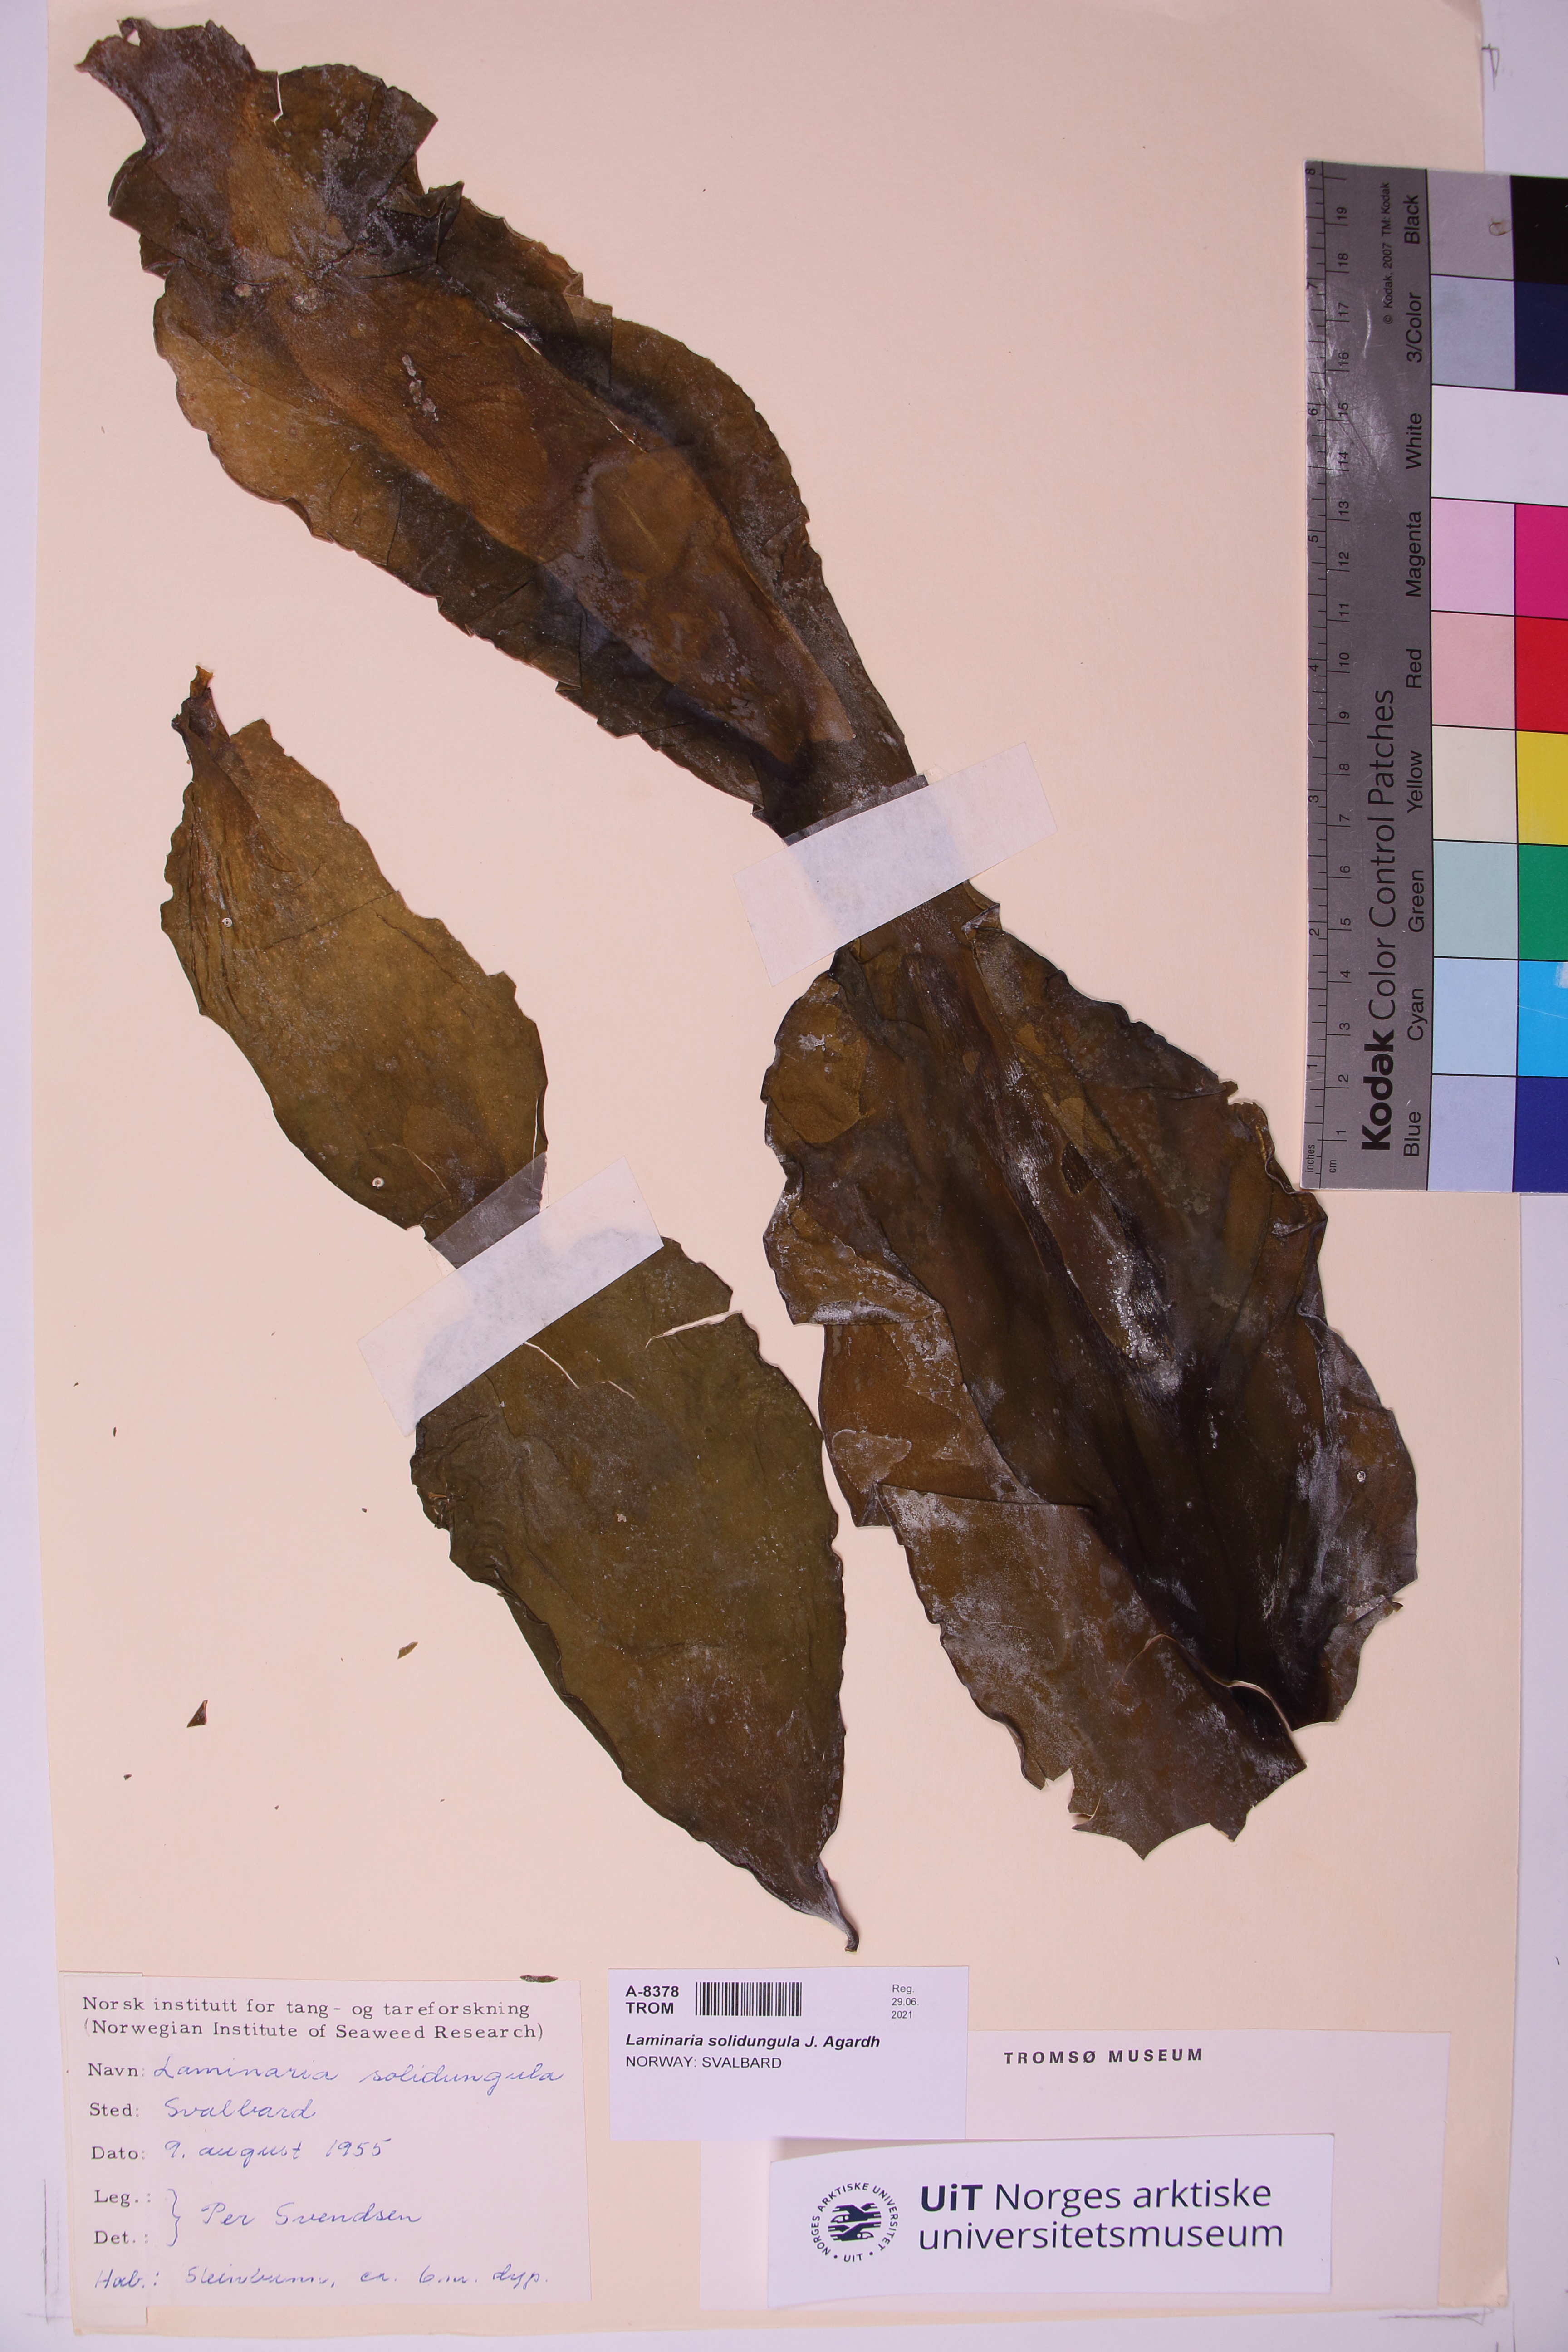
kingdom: Chromista
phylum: Ochrophyta
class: Phaeophyceae
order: Laminariales
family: Laminariaceae
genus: Laminaria
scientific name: Laminaria solidungula
